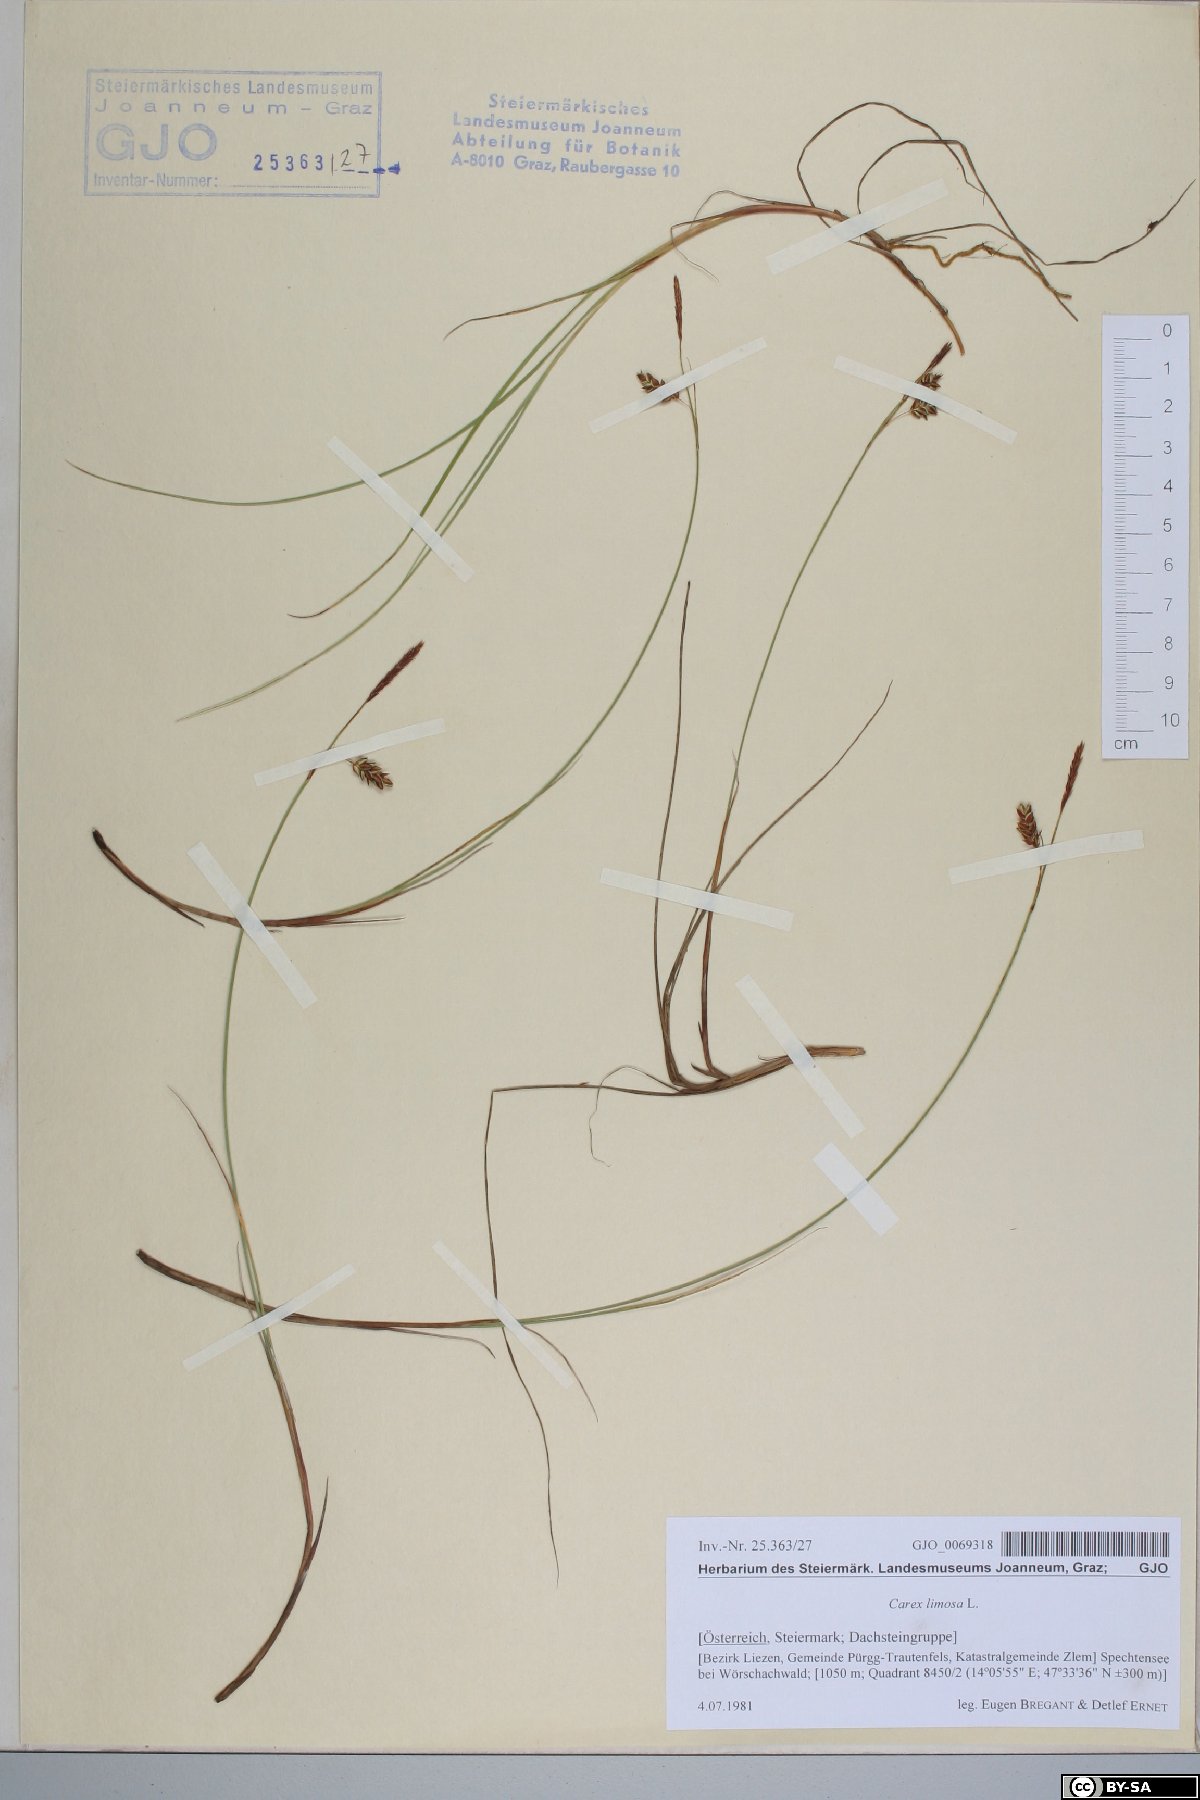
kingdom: Plantae
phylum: Tracheophyta
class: Liliopsida
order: Poales
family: Cyperaceae
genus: Carex
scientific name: Carex limosa
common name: Bog sedge
